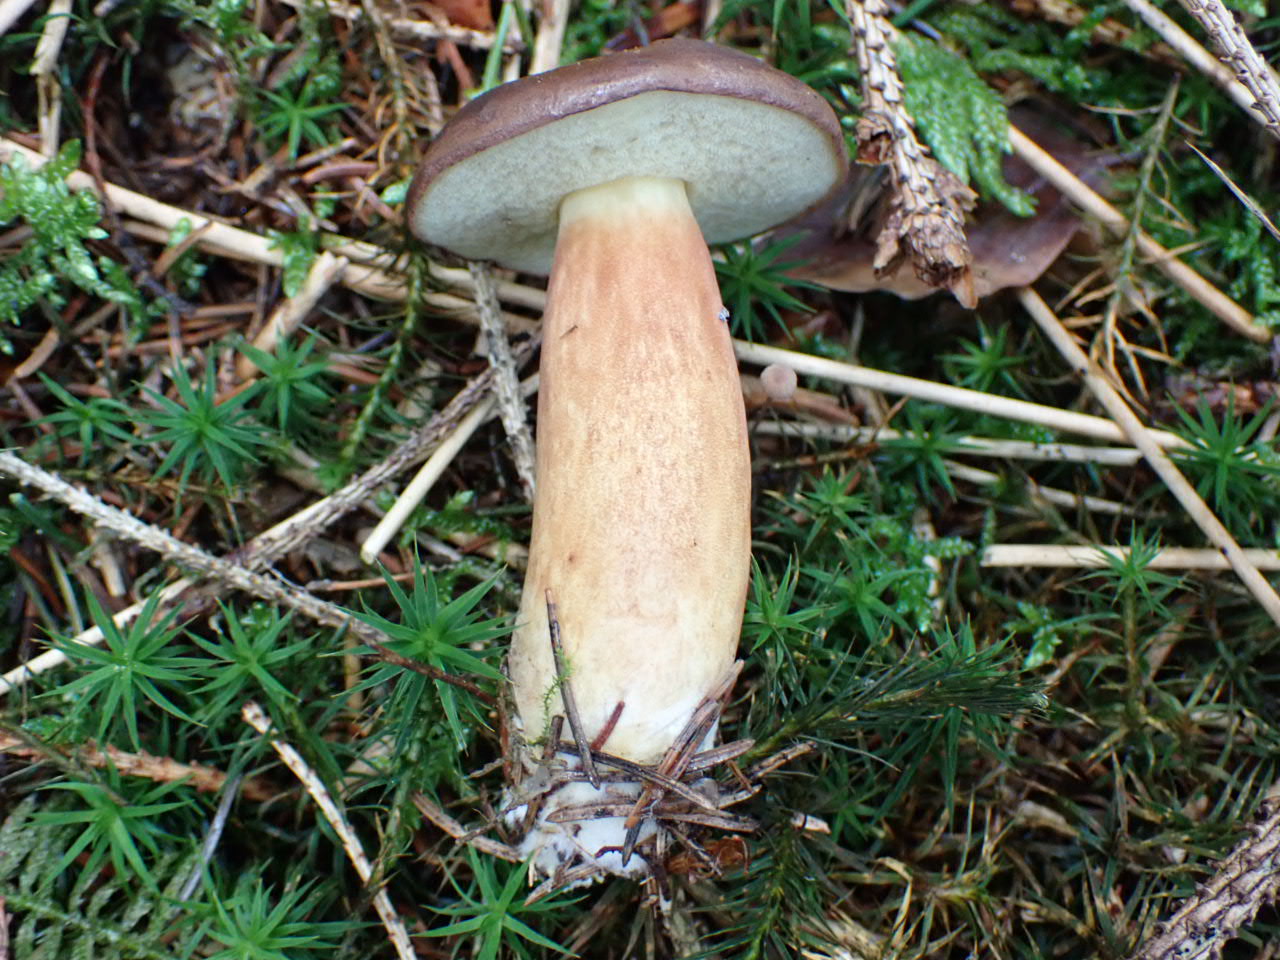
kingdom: Fungi
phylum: Basidiomycota
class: Agaricomycetes
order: Boletales
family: Boletaceae
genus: Imleria
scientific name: Imleria badia
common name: brunstokket rørhat
